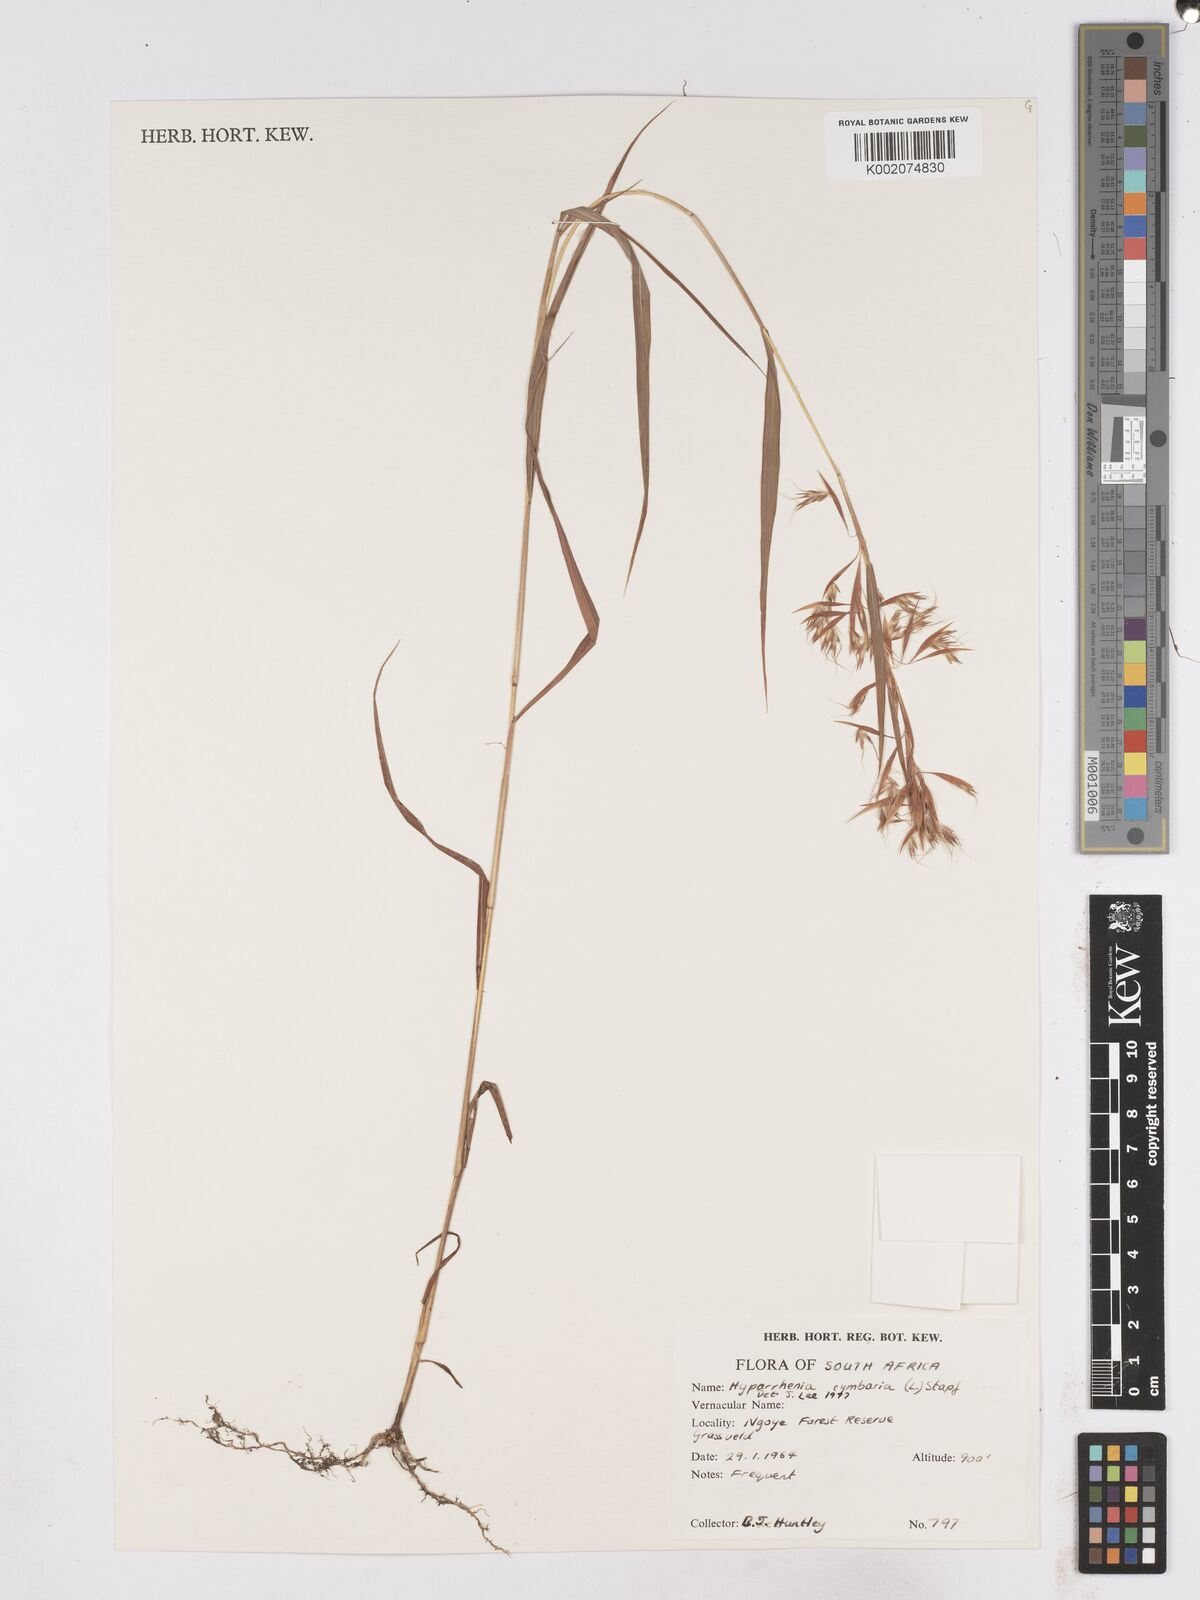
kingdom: Plantae
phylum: Tracheophyta
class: Liliopsida
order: Poales
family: Poaceae
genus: Hyparrhenia
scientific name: Hyparrhenia cymbaria
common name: Boat thatching grass
